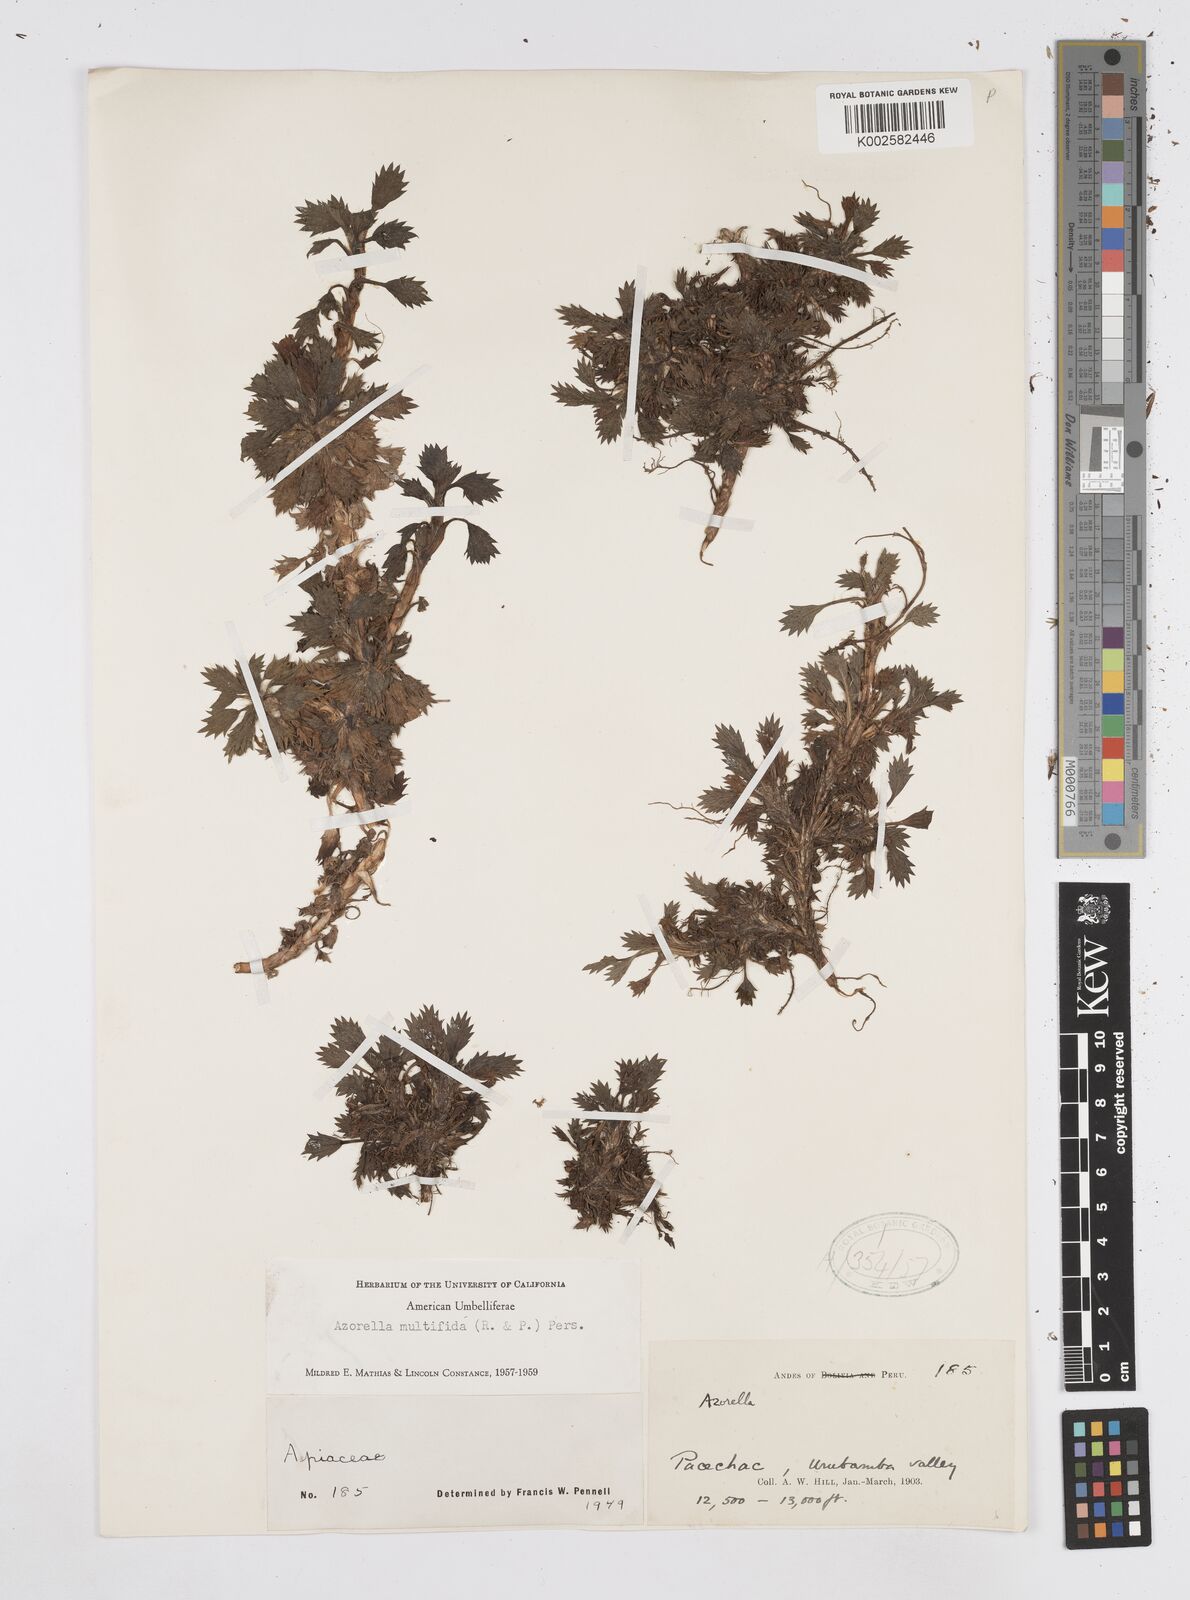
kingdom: Plantae
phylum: Tracheophyta
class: Magnoliopsida
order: Apiales
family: Apiaceae
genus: Azorella
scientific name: Azorella multifida
